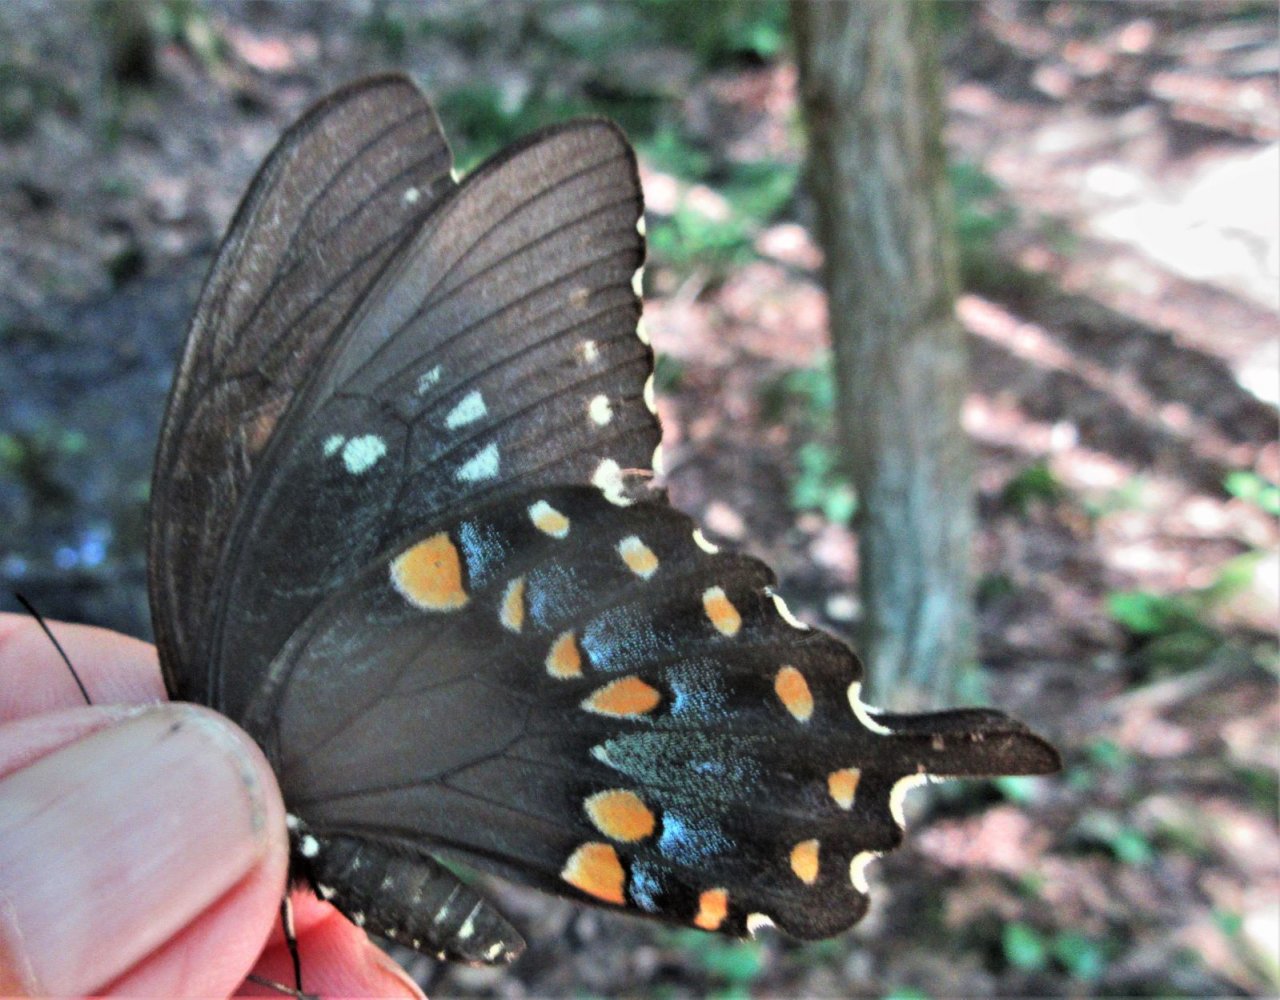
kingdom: Animalia
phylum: Arthropoda
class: Insecta
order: Lepidoptera
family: Papilionidae
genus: Pterourus
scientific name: Pterourus troilus
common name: Spicebush Swallowtail
